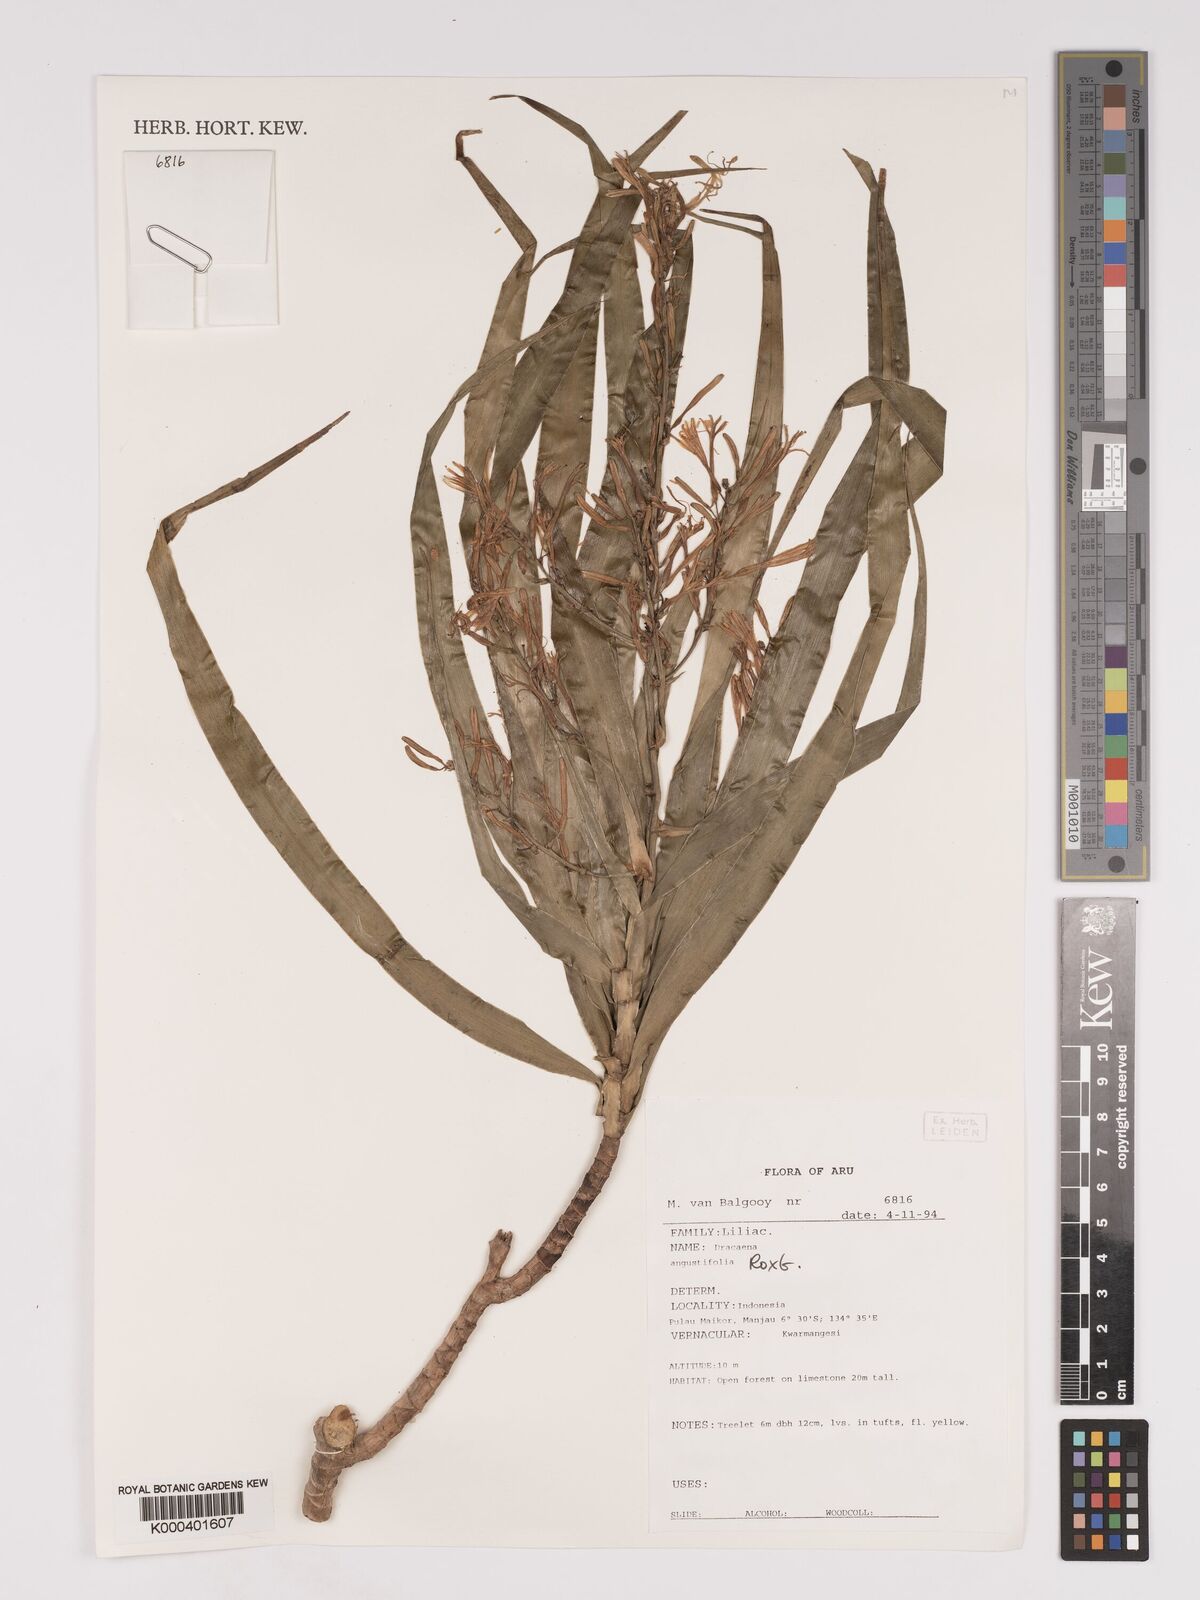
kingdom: Plantae
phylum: Tracheophyta
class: Liliopsida
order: Asparagales
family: Asparagaceae
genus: Dracaena
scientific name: Dracaena angustifolia
